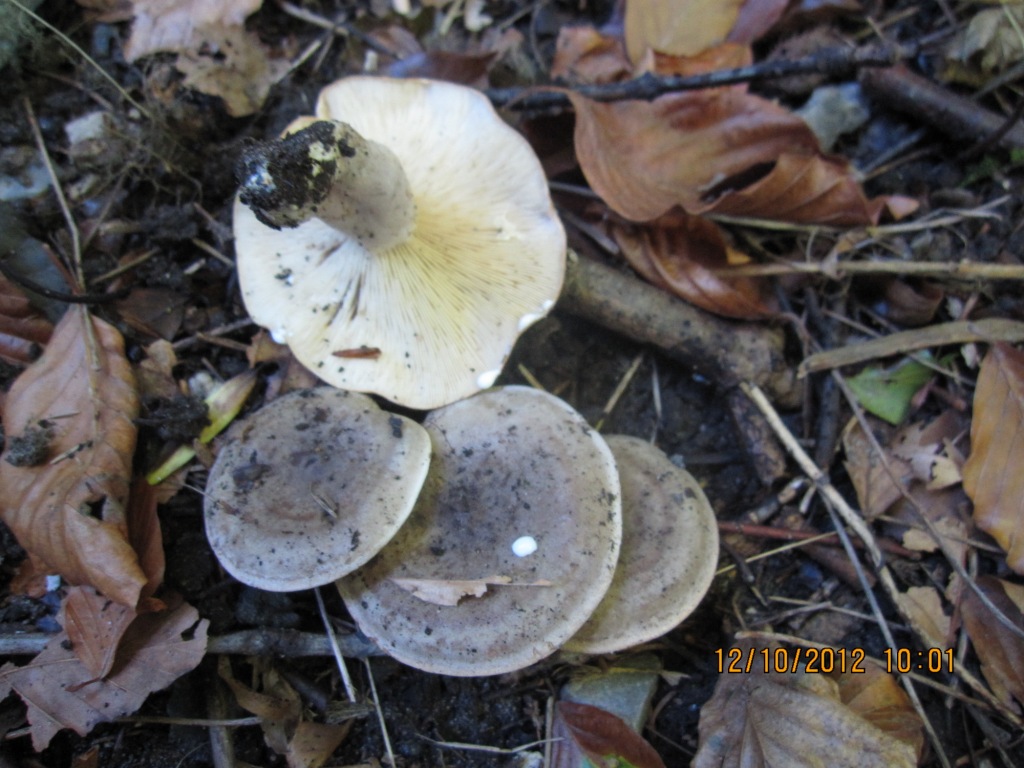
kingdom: Fungi
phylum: Basidiomycota
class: Agaricomycetes
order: Russulales
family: Russulaceae
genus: Lactarius
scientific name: Lactarius fluens
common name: lysrandet mælkehat
